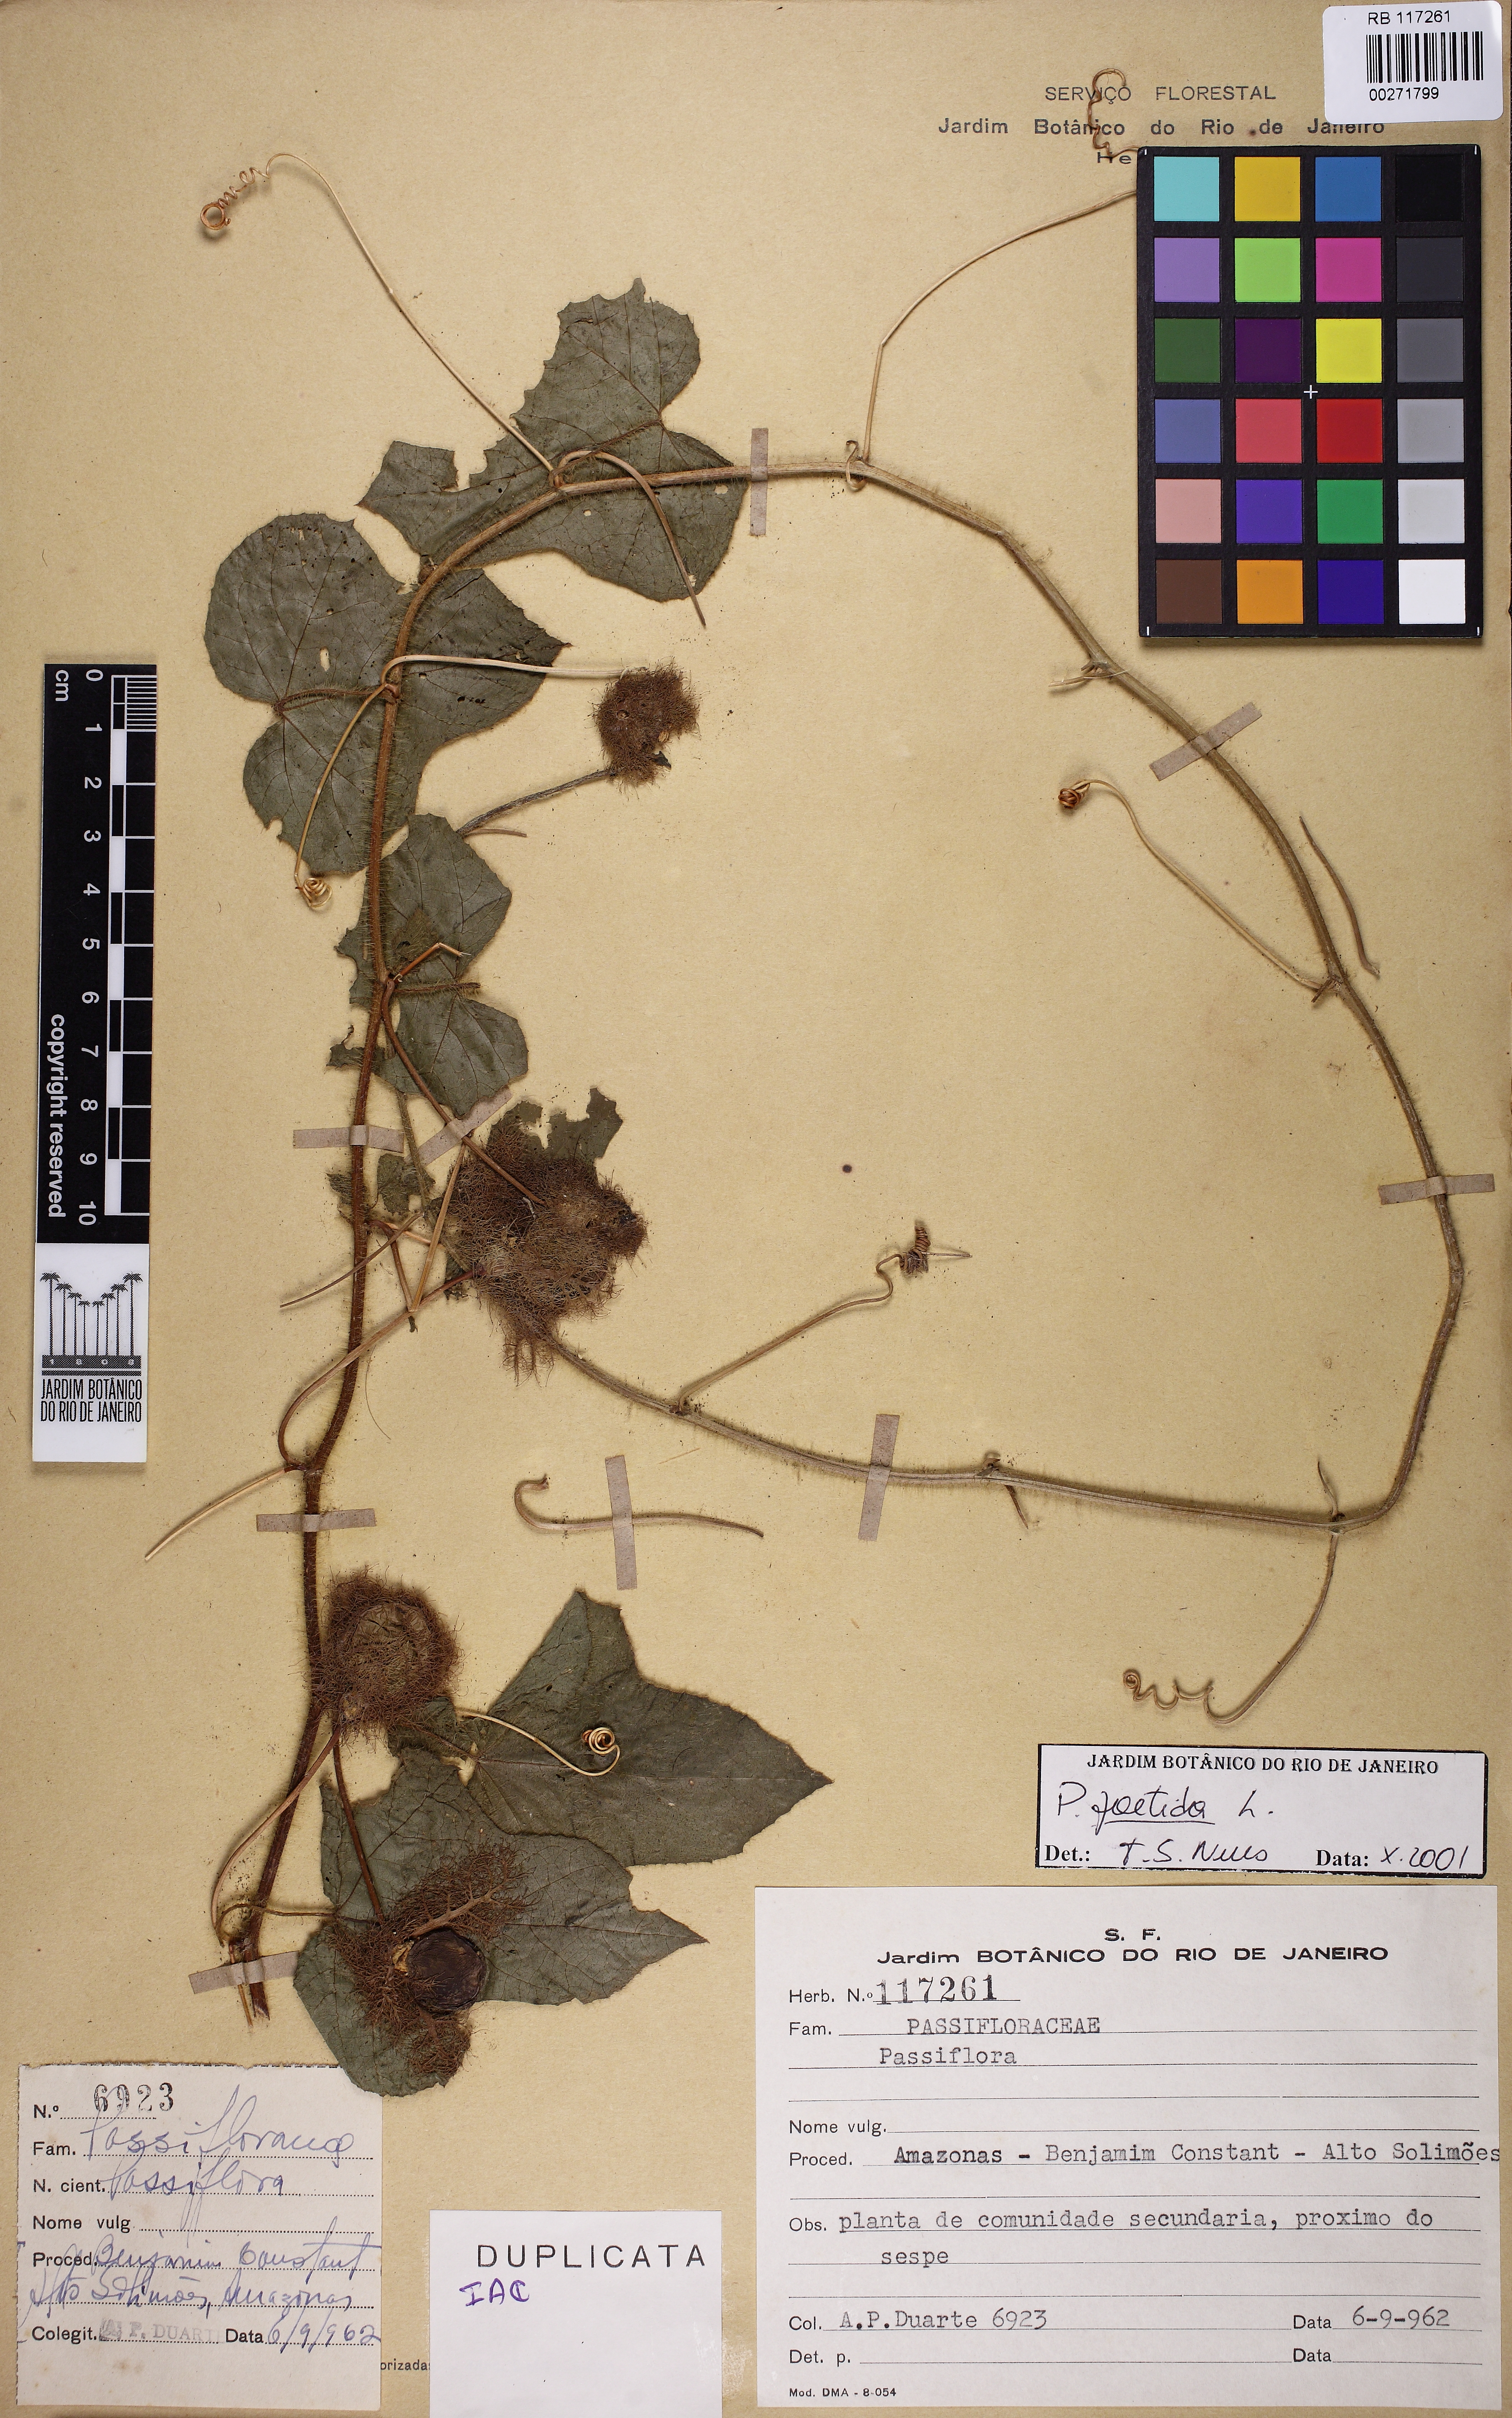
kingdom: Plantae
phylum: Tracheophyta
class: Magnoliopsida
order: Malpighiales
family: Passifloraceae
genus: Passiflora
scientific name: Passiflora foetida
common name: Fetid passionflower
